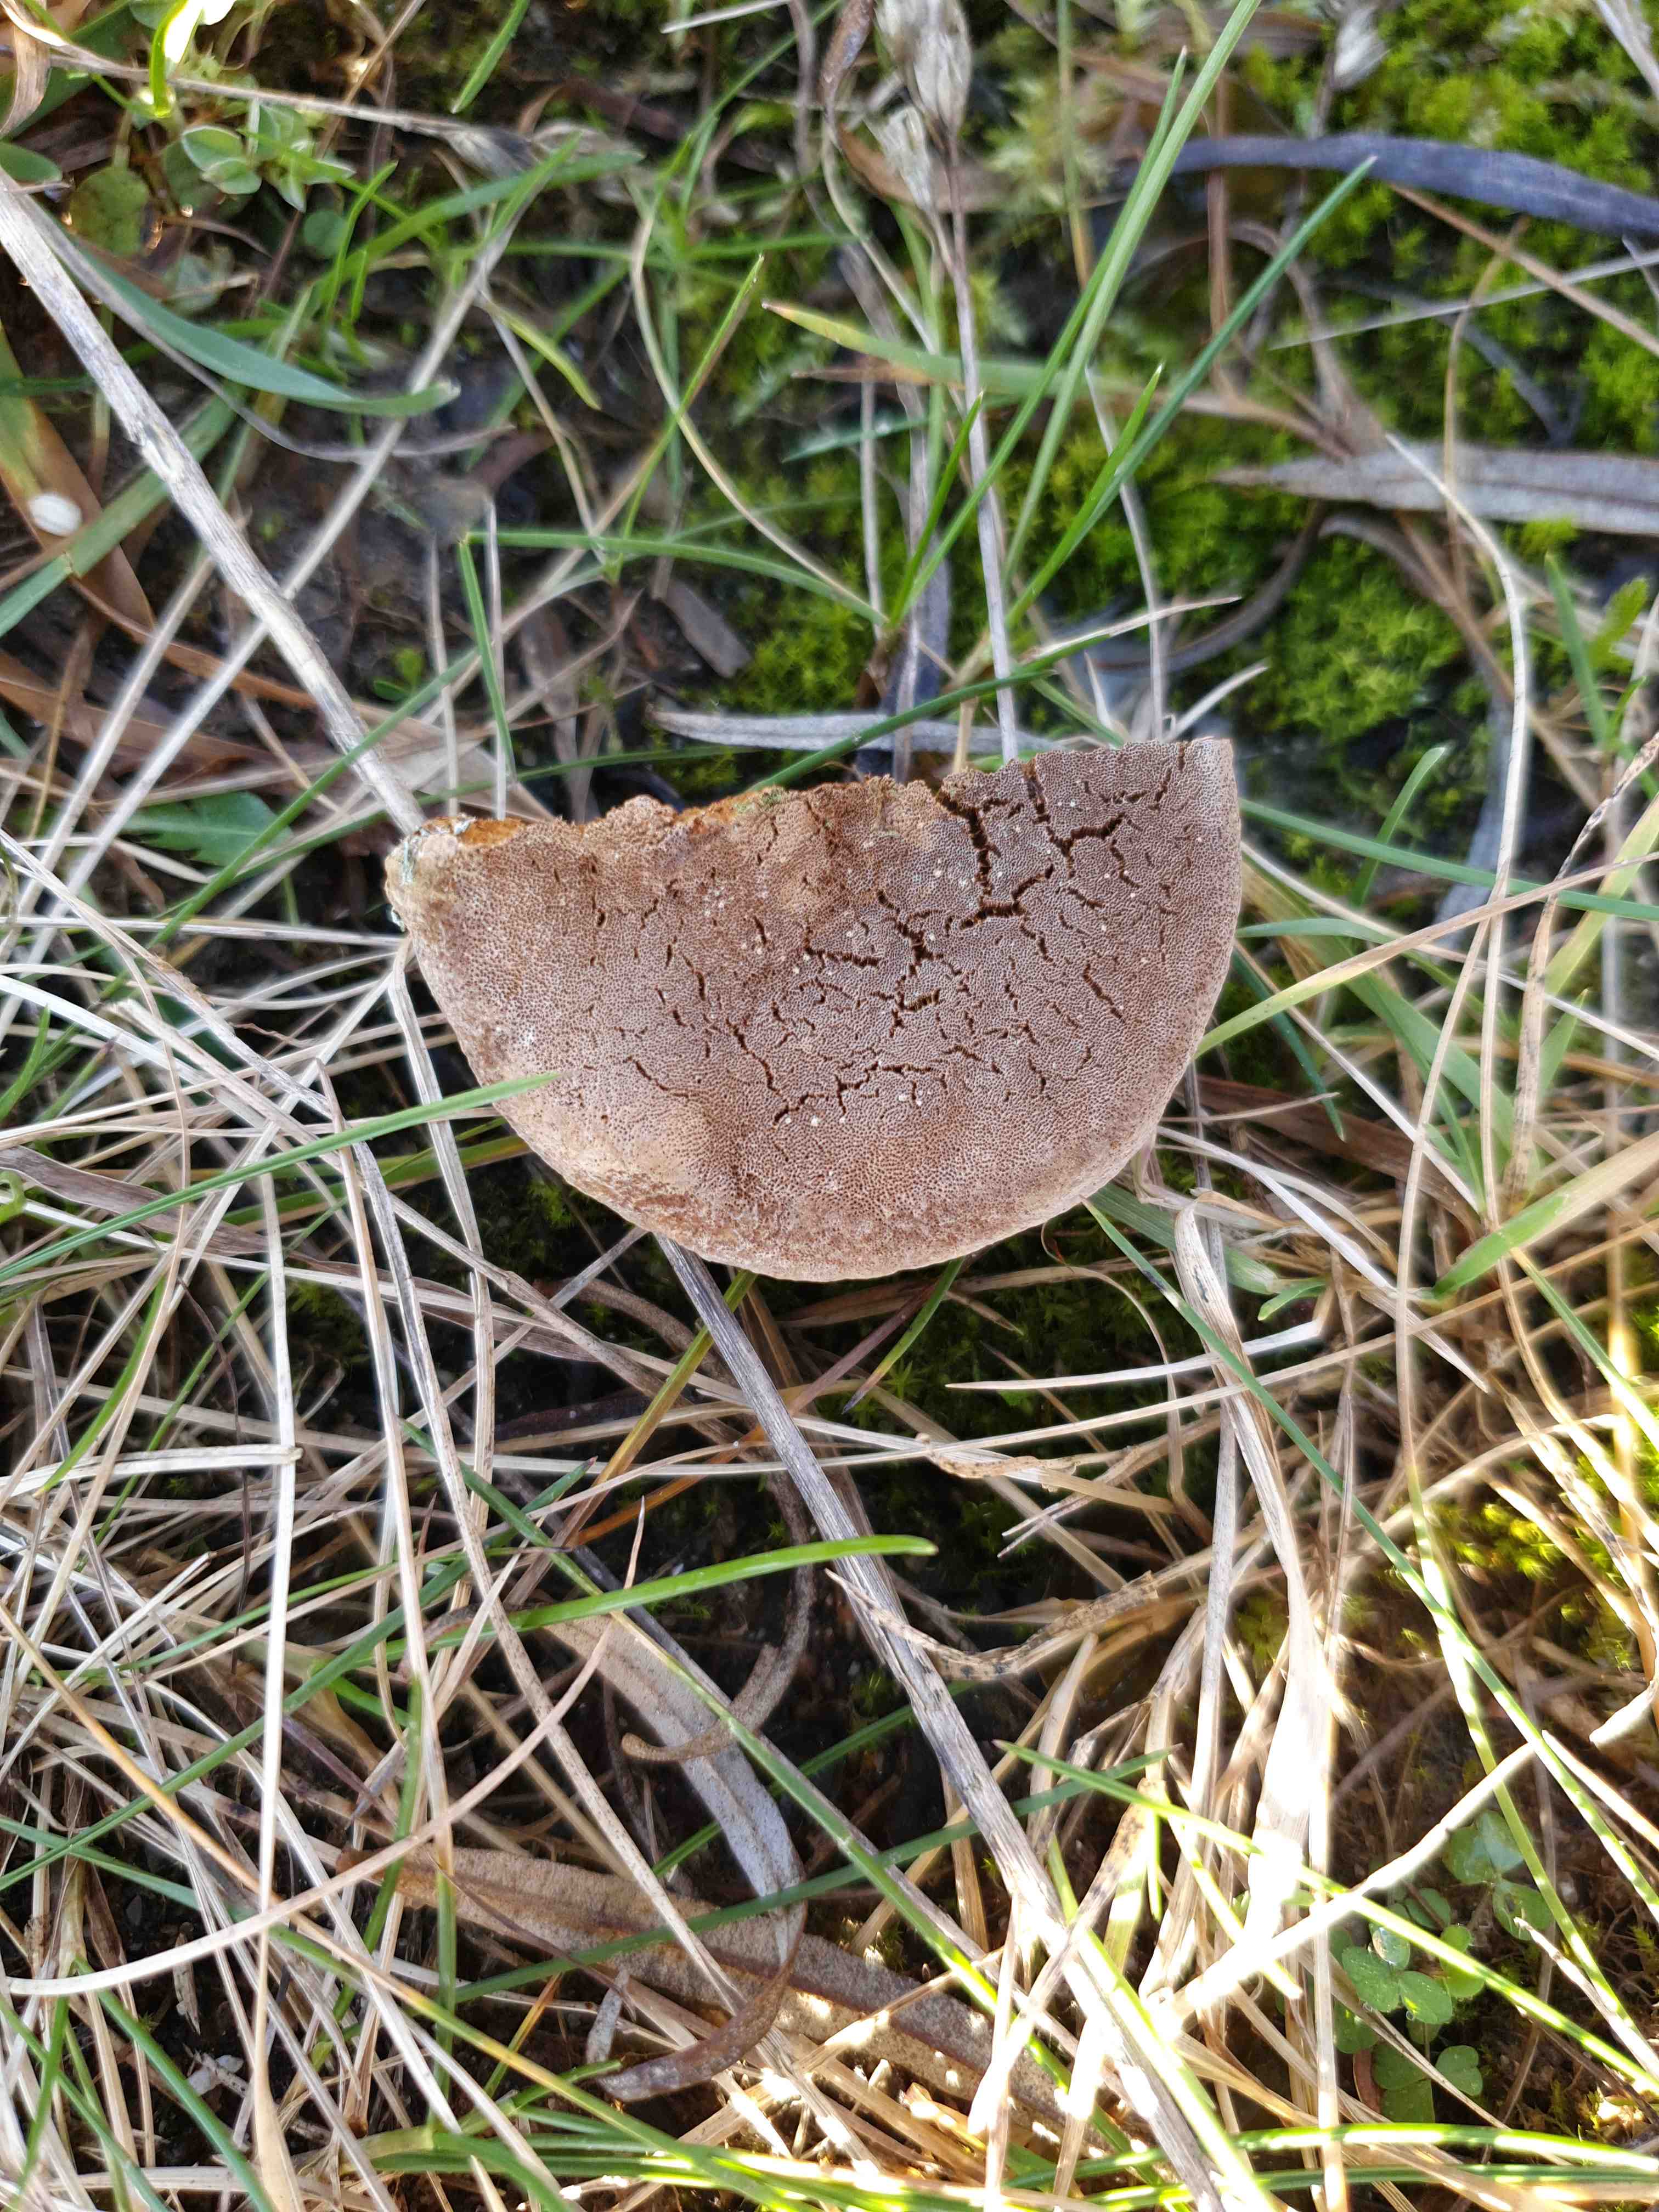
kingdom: Fungi
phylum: Basidiomycota
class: Agaricomycetes
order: Hymenochaetales
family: Hymenochaetaceae
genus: Fomitiporia
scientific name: Fomitiporia hippophaeicola
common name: havtorn-ildporesvamp
